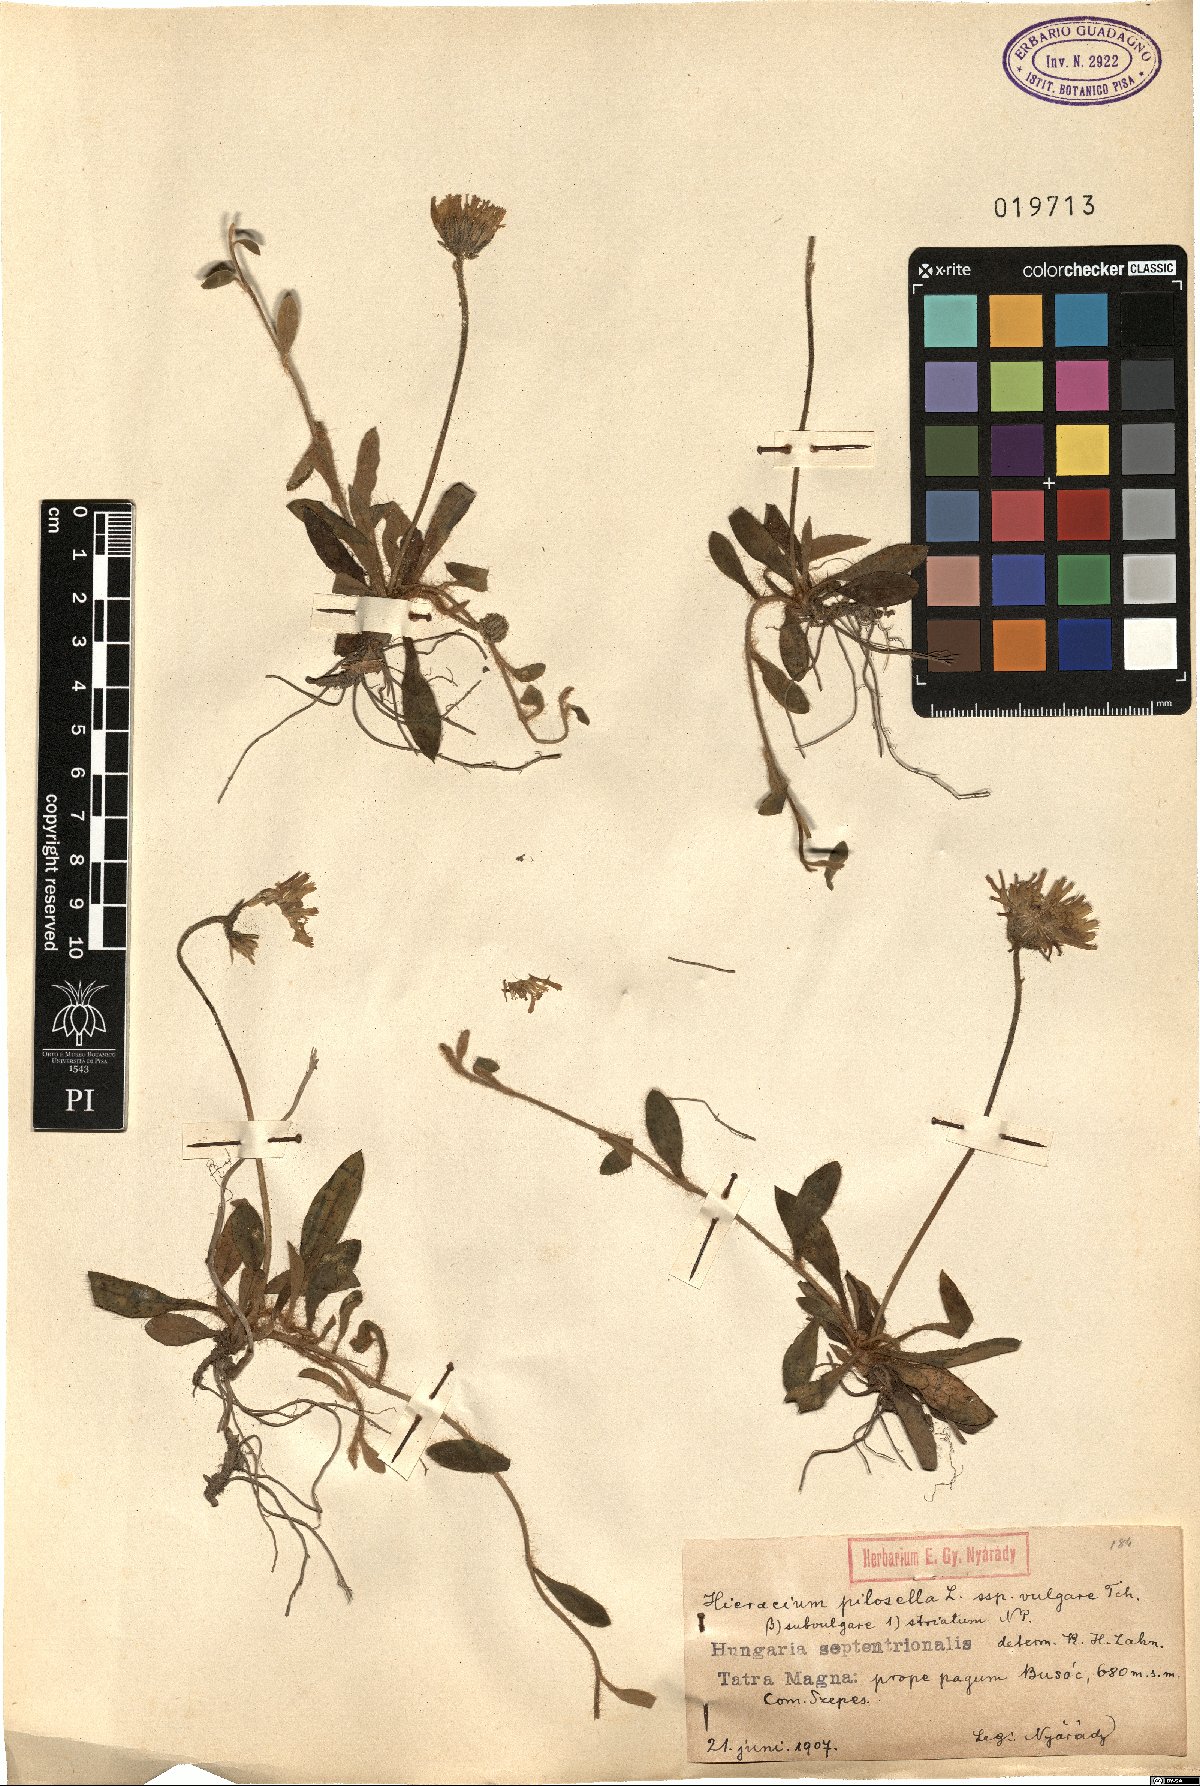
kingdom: Plantae
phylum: Tracheophyta
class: Magnoliopsida
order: Asterales
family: Asteraceae
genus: Pilosella
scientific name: Pilosella officinarum
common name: Mouse-ear hawkweed
